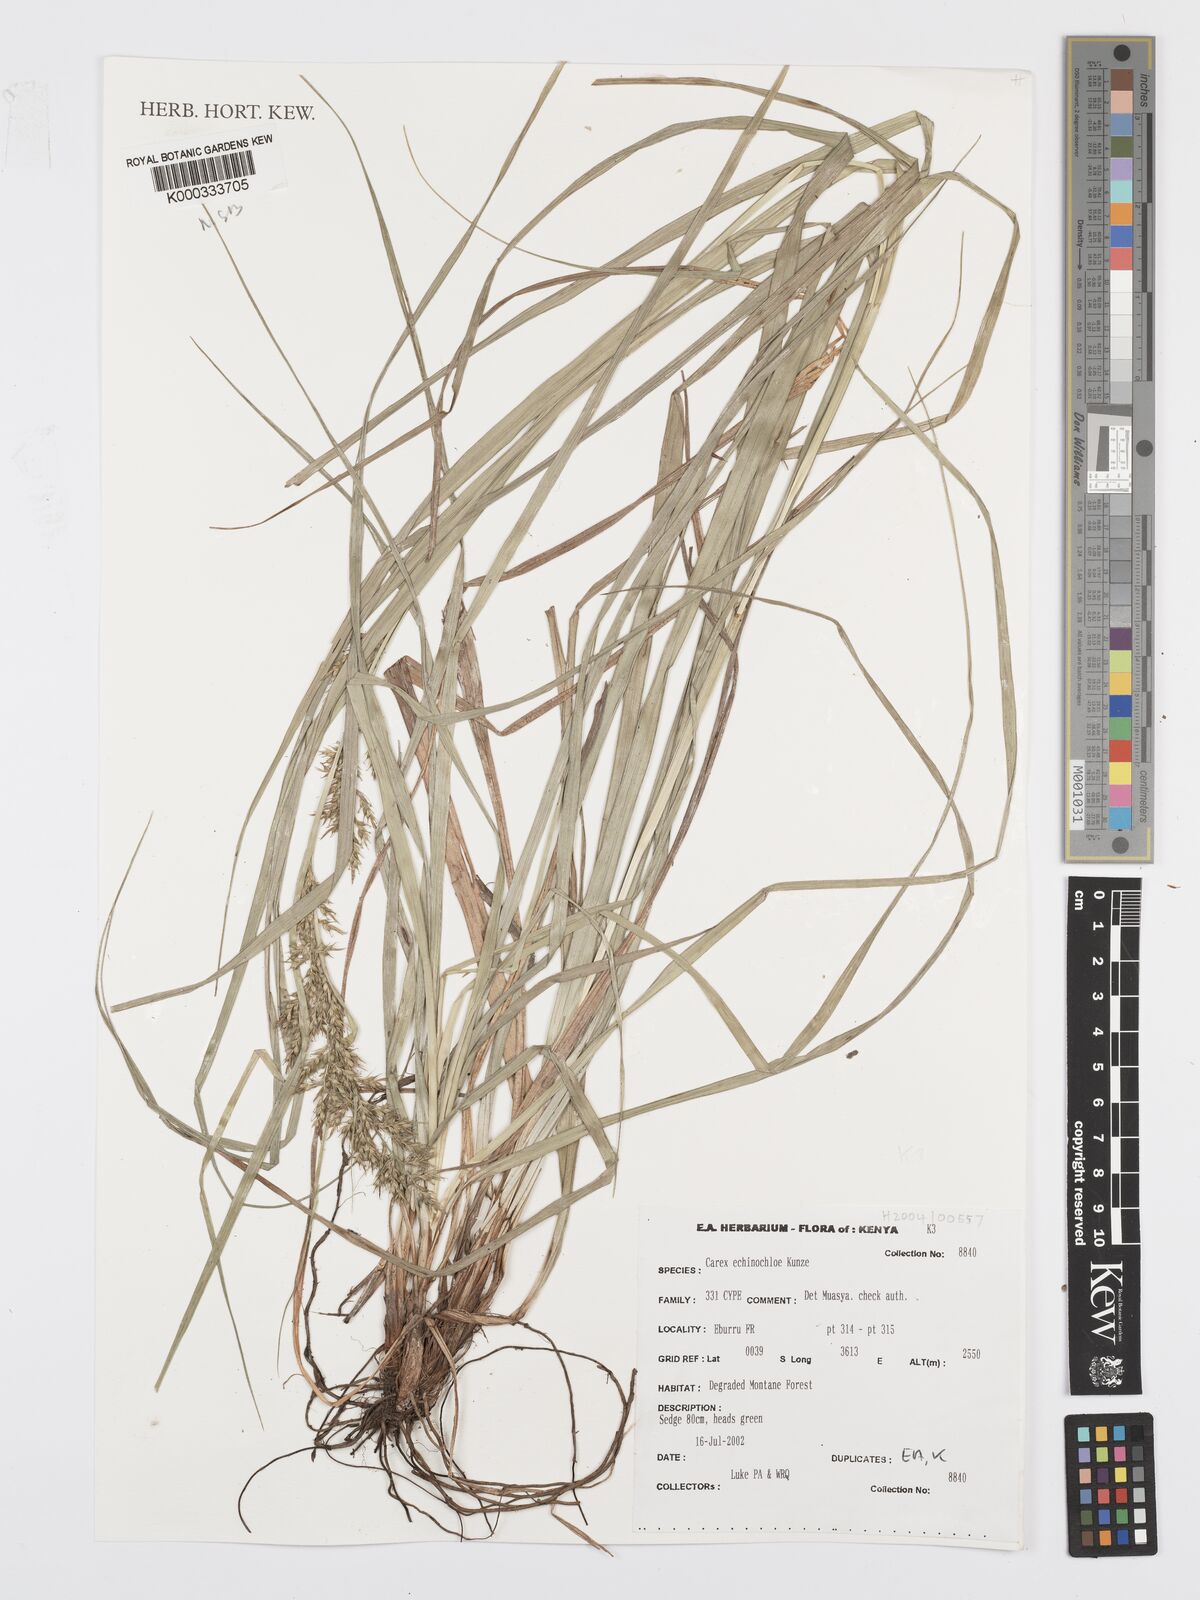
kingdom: Plantae
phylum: Tracheophyta
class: Liliopsida
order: Poales
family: Cyperaceae
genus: Carex
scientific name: Carex echinochloe
